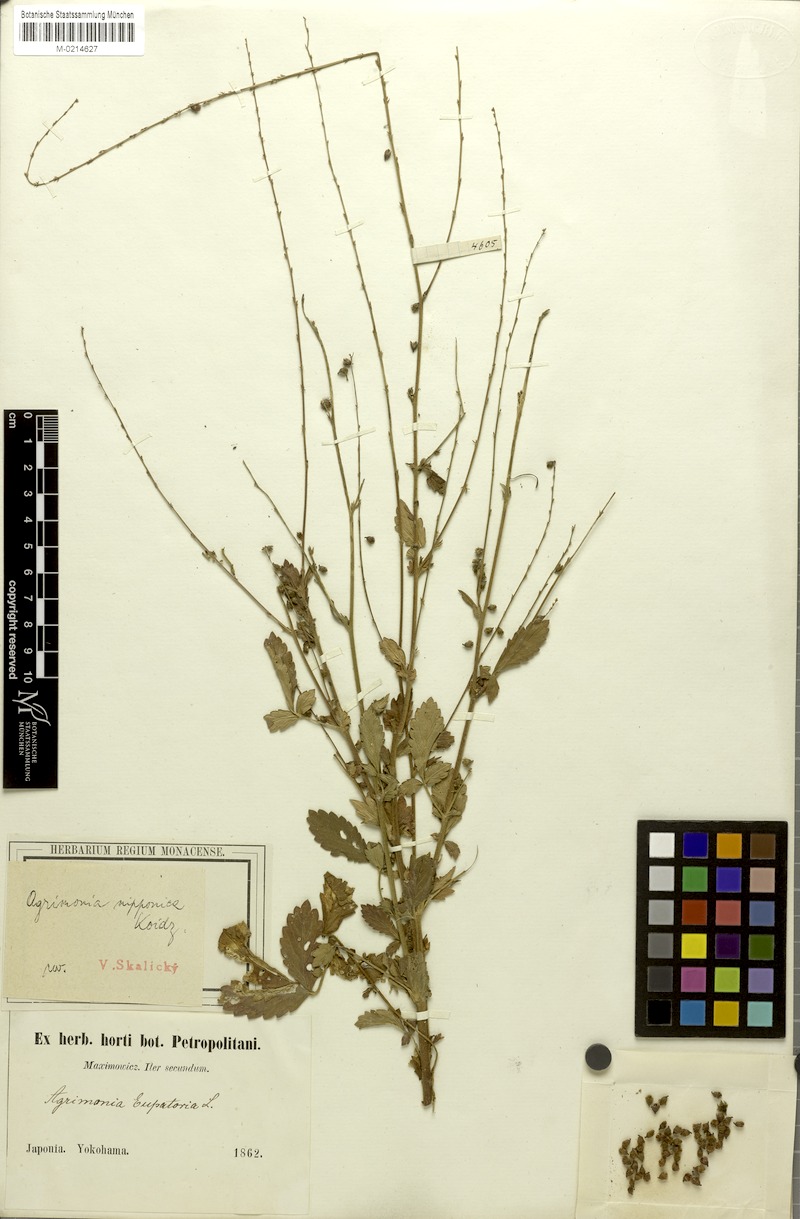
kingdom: Plantae
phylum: Tracheophyta
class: Magnoliopsida
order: Rosales
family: Rosaceae
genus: Agrimonia
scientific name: Agrimonia nipponica
